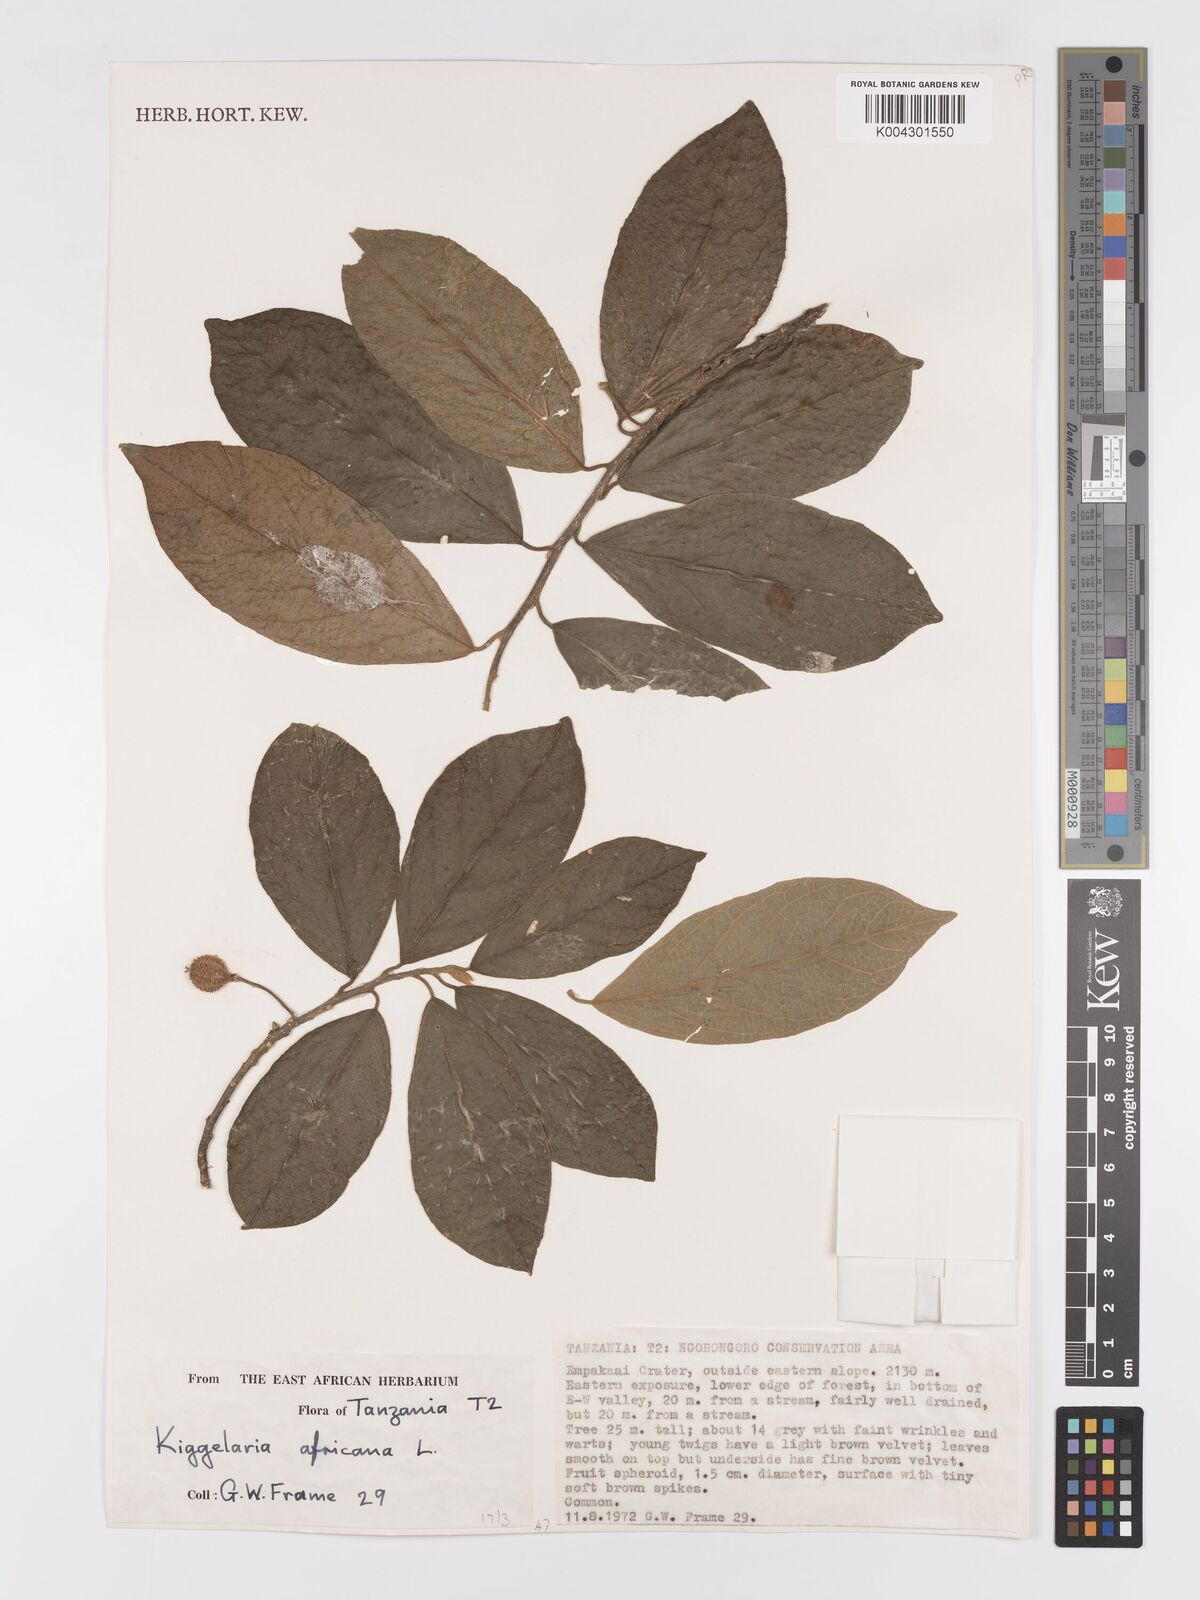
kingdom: Plantae
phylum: Tracheophyta
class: Magnoliopsida
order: Malpighiales
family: Achariaceae
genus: Kiggelaria
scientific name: Kiggelaria africana
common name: Wild peach
